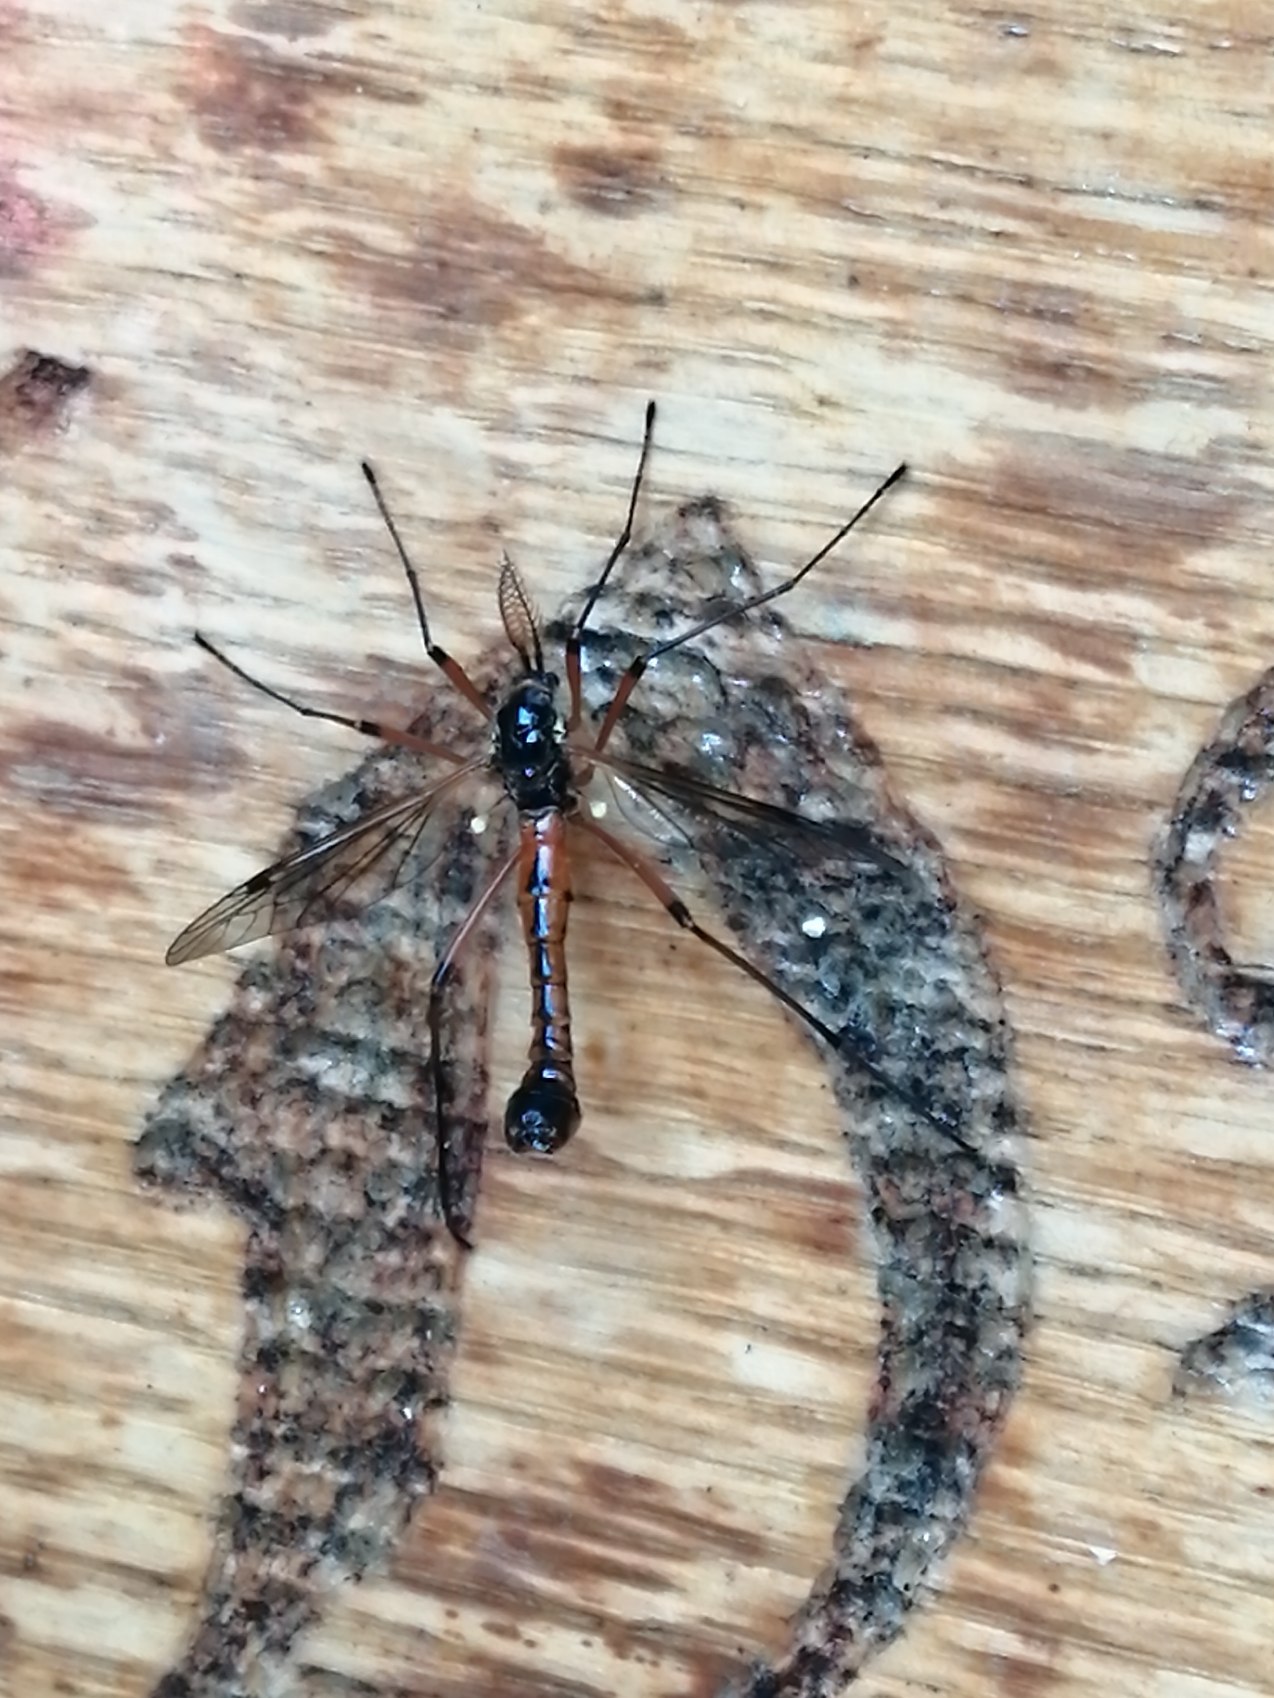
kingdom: Animalia
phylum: Arthropoda
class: Insecta
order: Diptera
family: Tipulidae
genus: Tanyptera
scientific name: Tanyptera atrata
